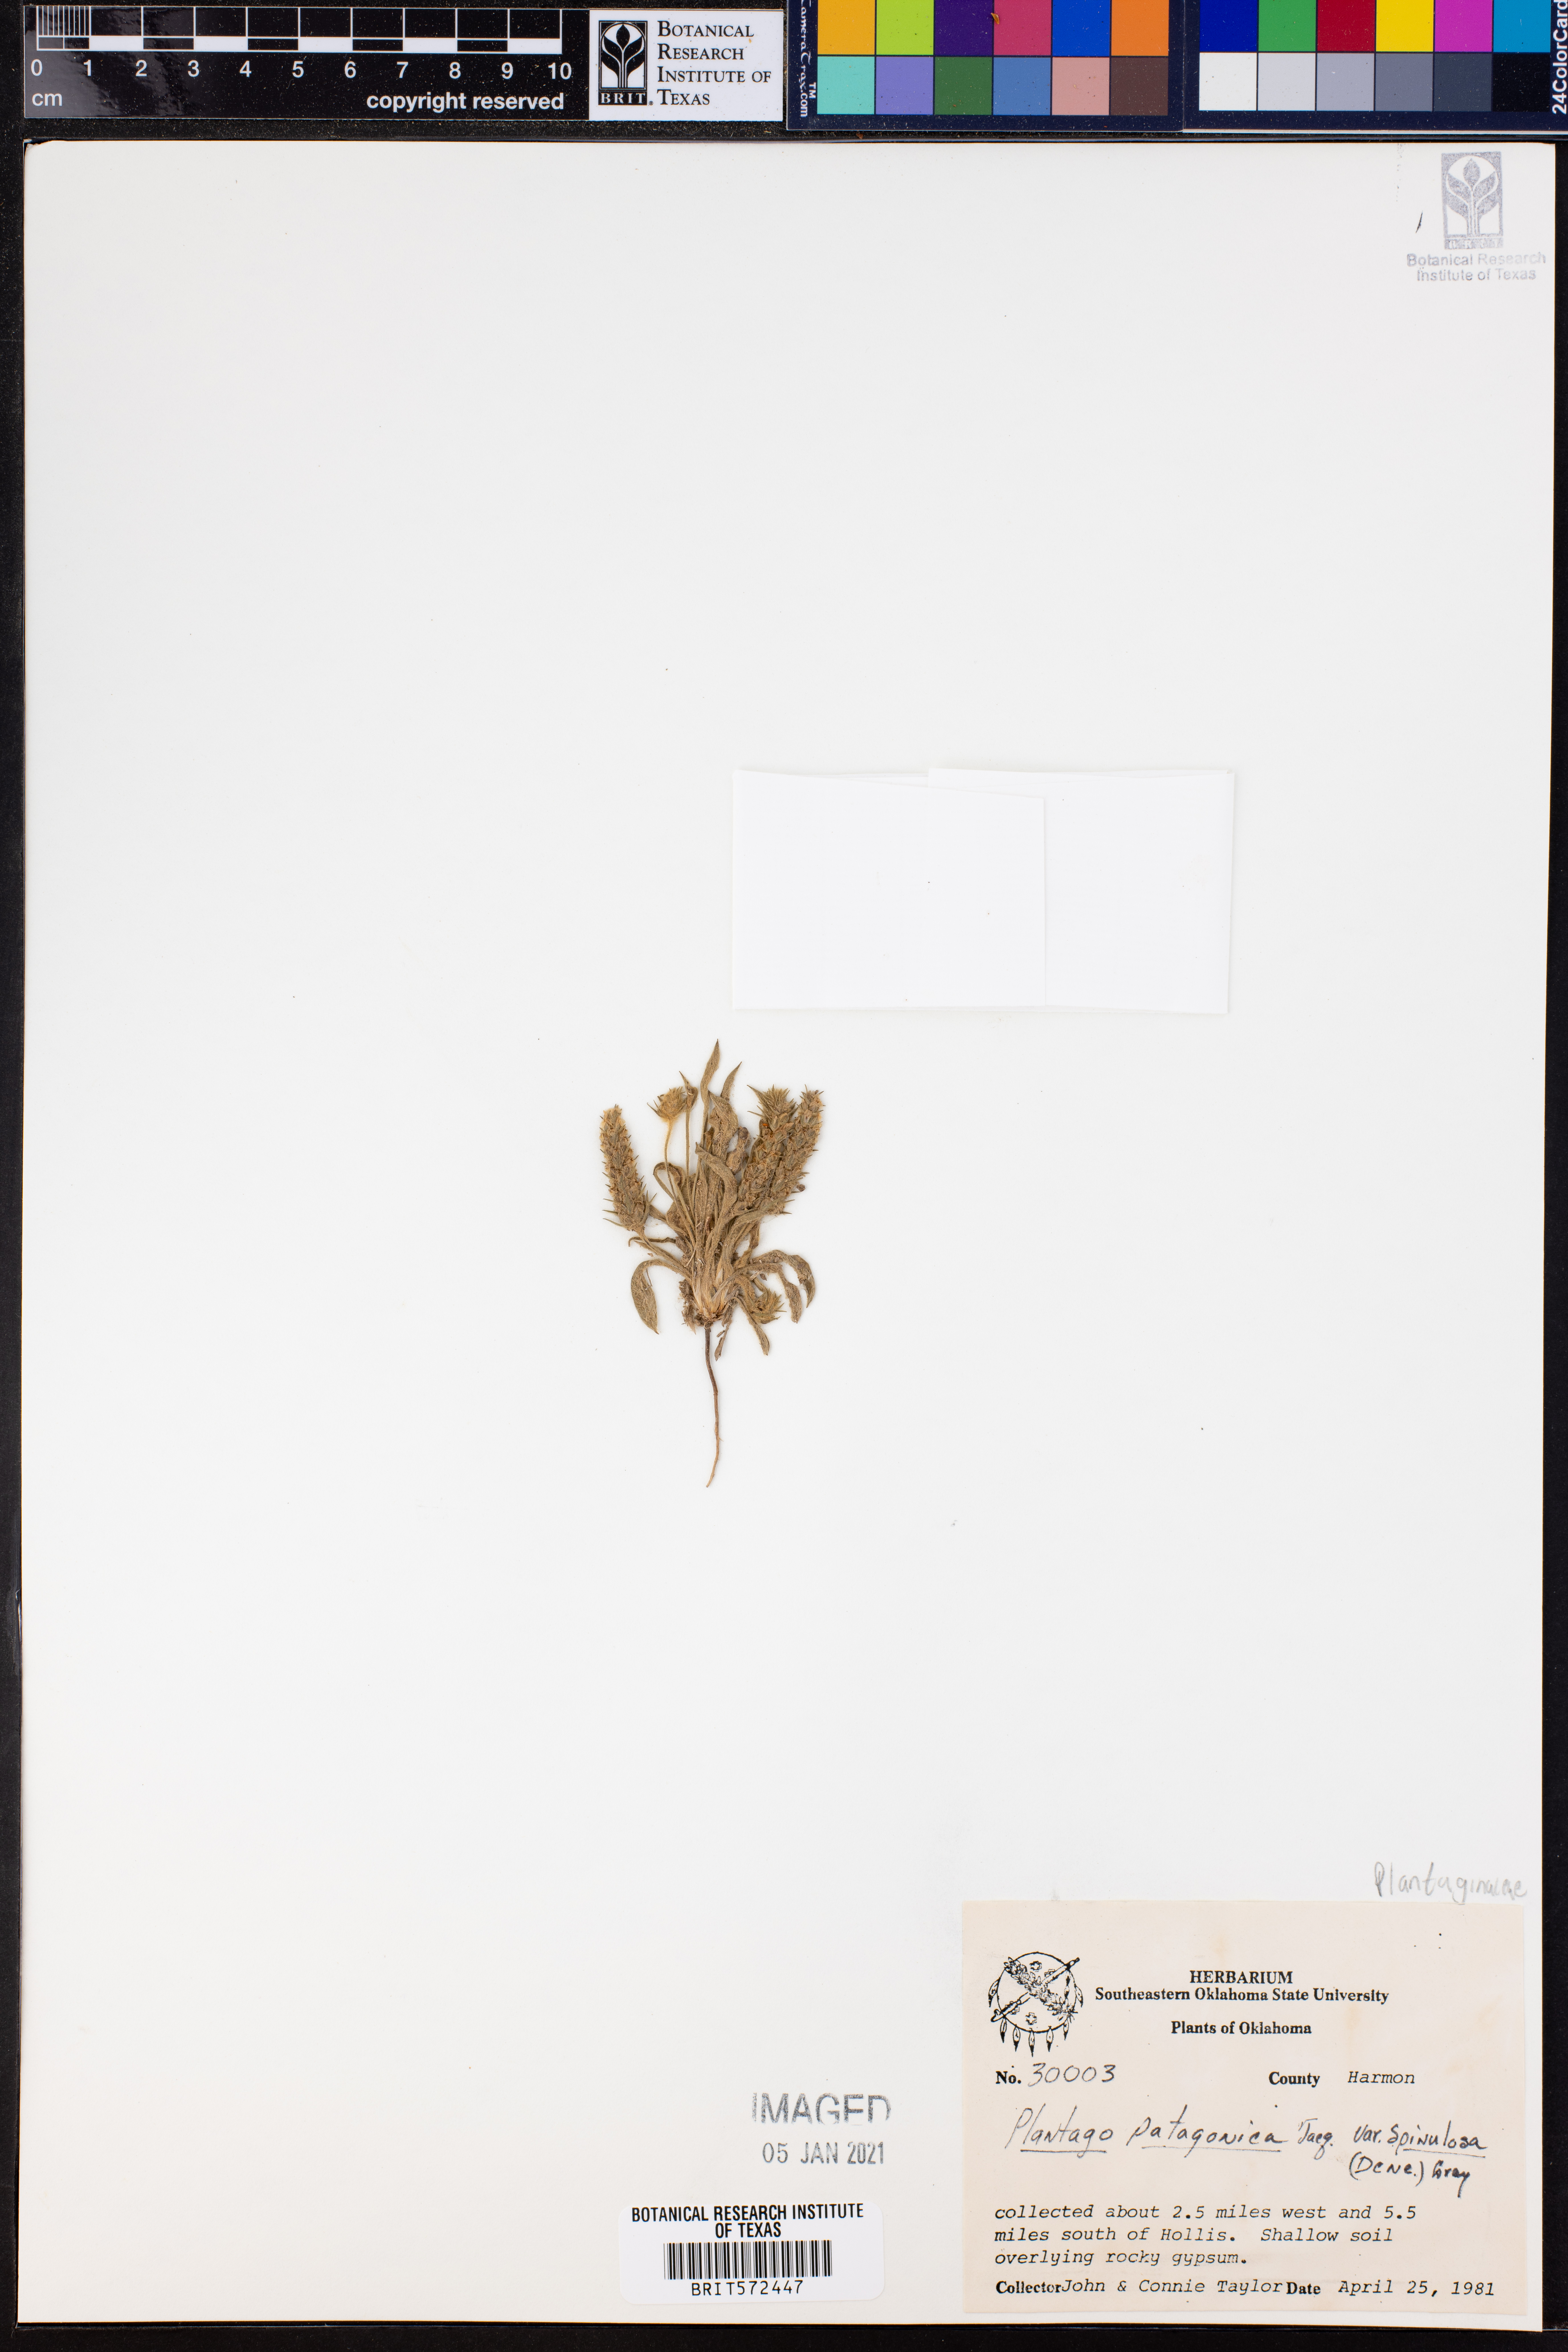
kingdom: Plantae
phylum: Tracheophyta
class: Magnoliopsida
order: Lamiales
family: Plantaginaceae
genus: Plantago
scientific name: Plantago patagonica
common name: Patagonia indian-wheat
